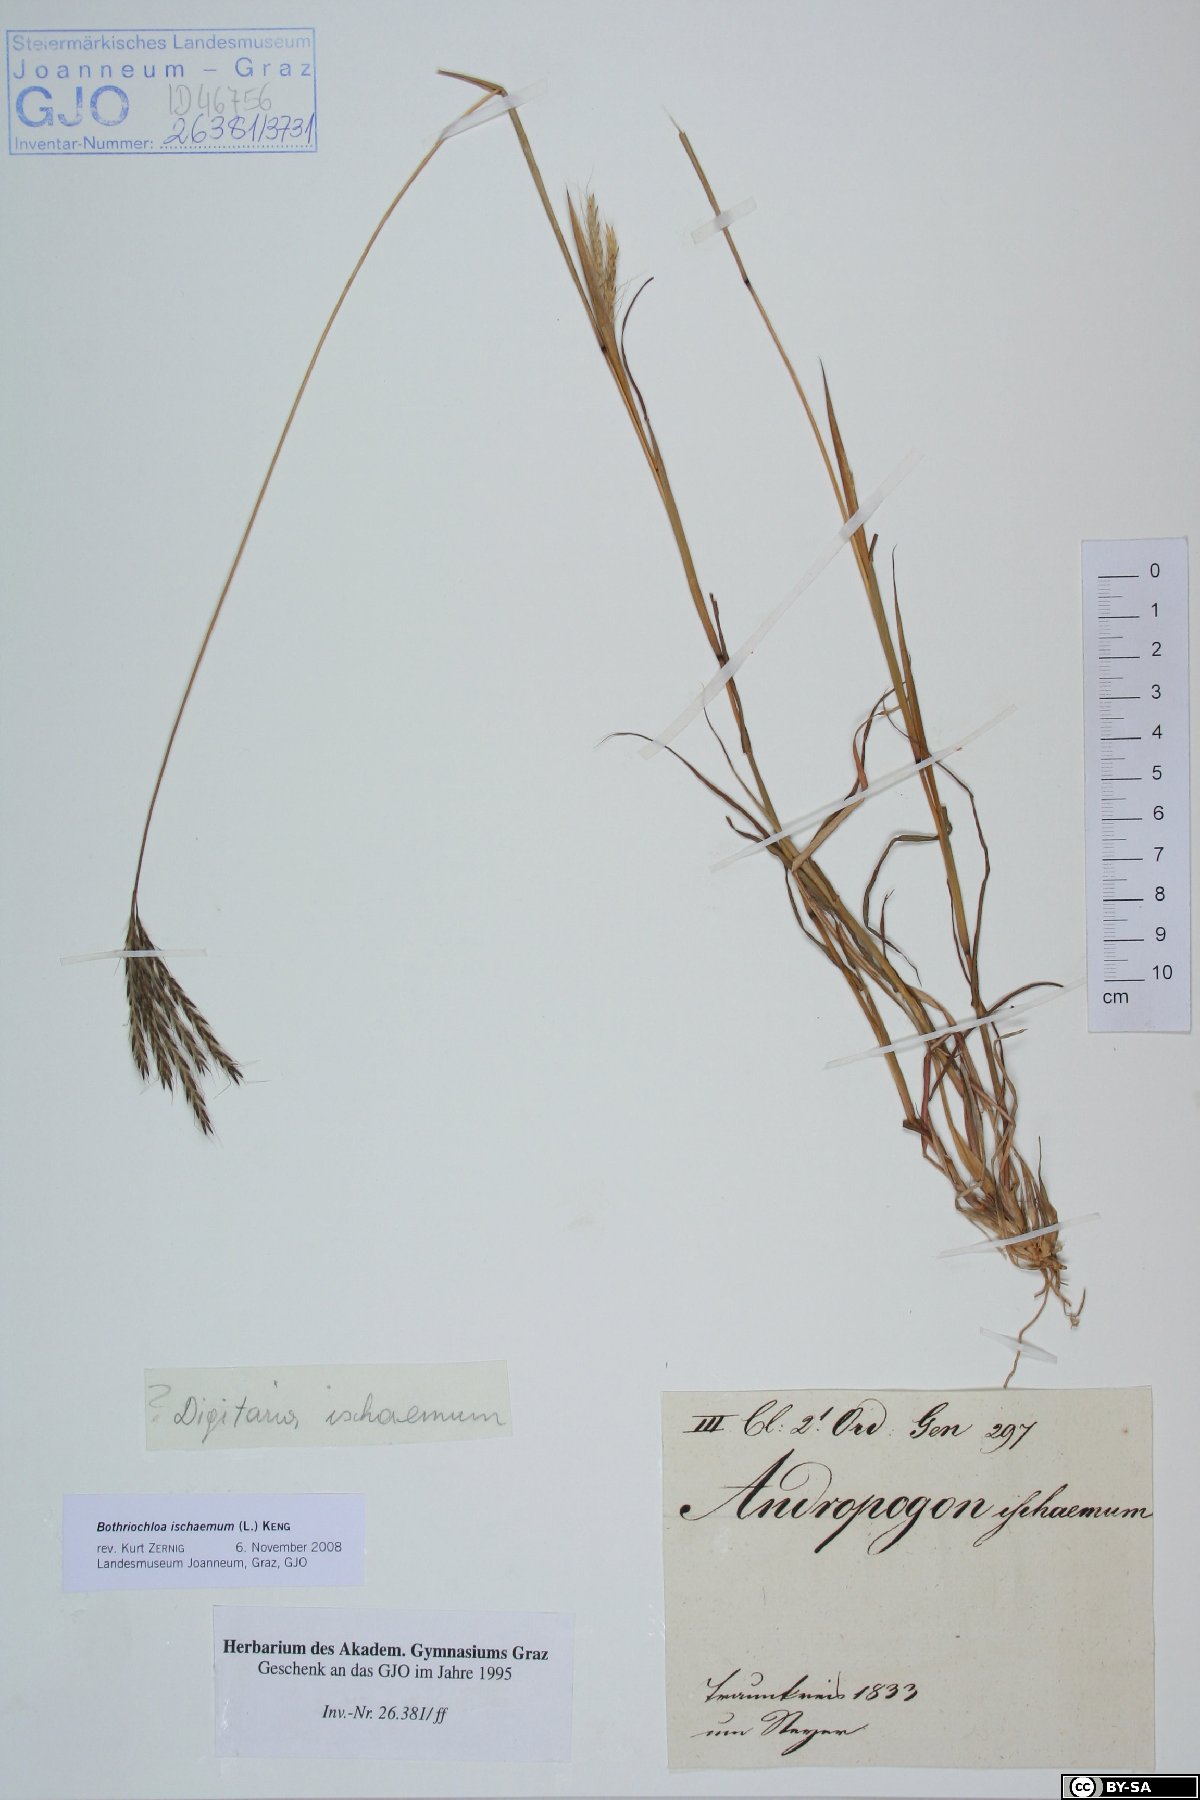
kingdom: Plantae
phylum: Tracheophyta
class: Liliopsida
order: Poales
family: Poaceae
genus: Bothriochloa
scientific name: Bothriochloa ischaemum
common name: Yellow bluestem
